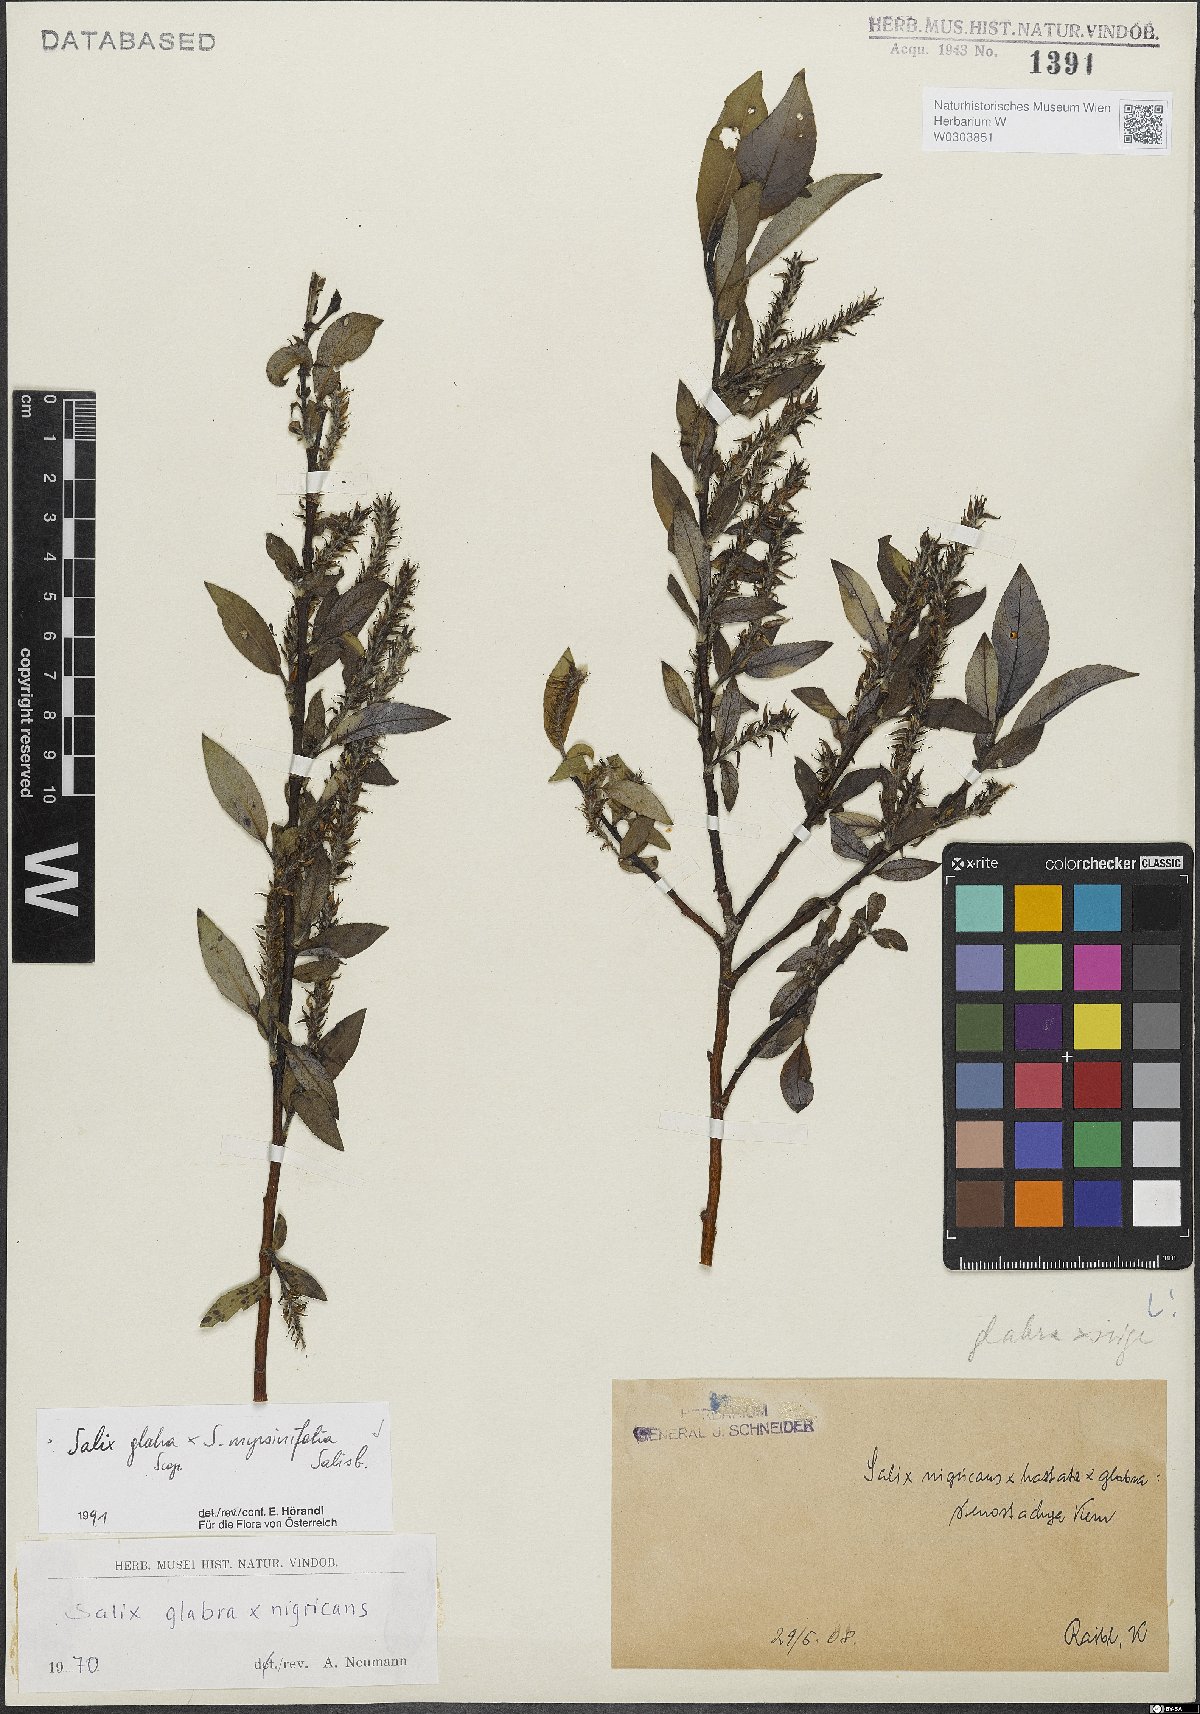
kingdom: Plantae
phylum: Tracheophyta
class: Magnoliopsida
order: Malpighiales
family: Salicaceae
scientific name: Salicaceae
